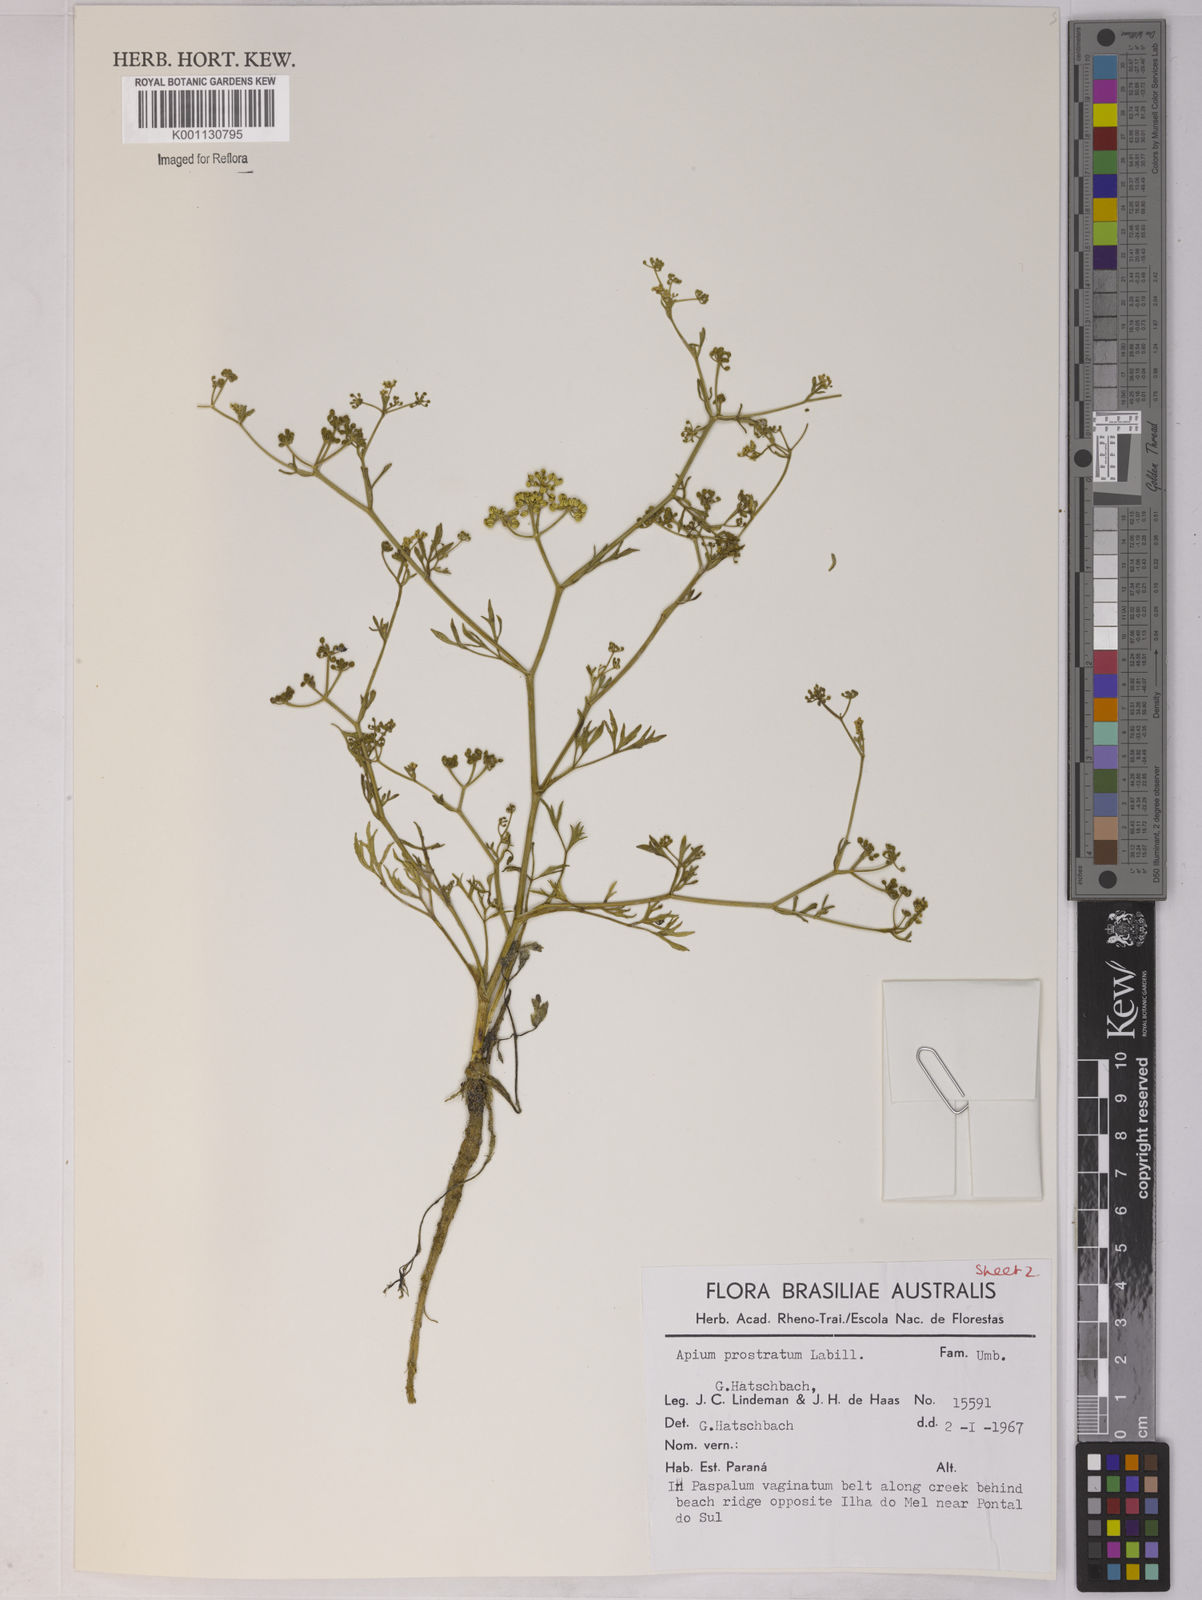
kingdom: Plantae
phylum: Tracheophyta
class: Magnoliopsida
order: Apiales
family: Apiaceae
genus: Apium
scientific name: Apium
